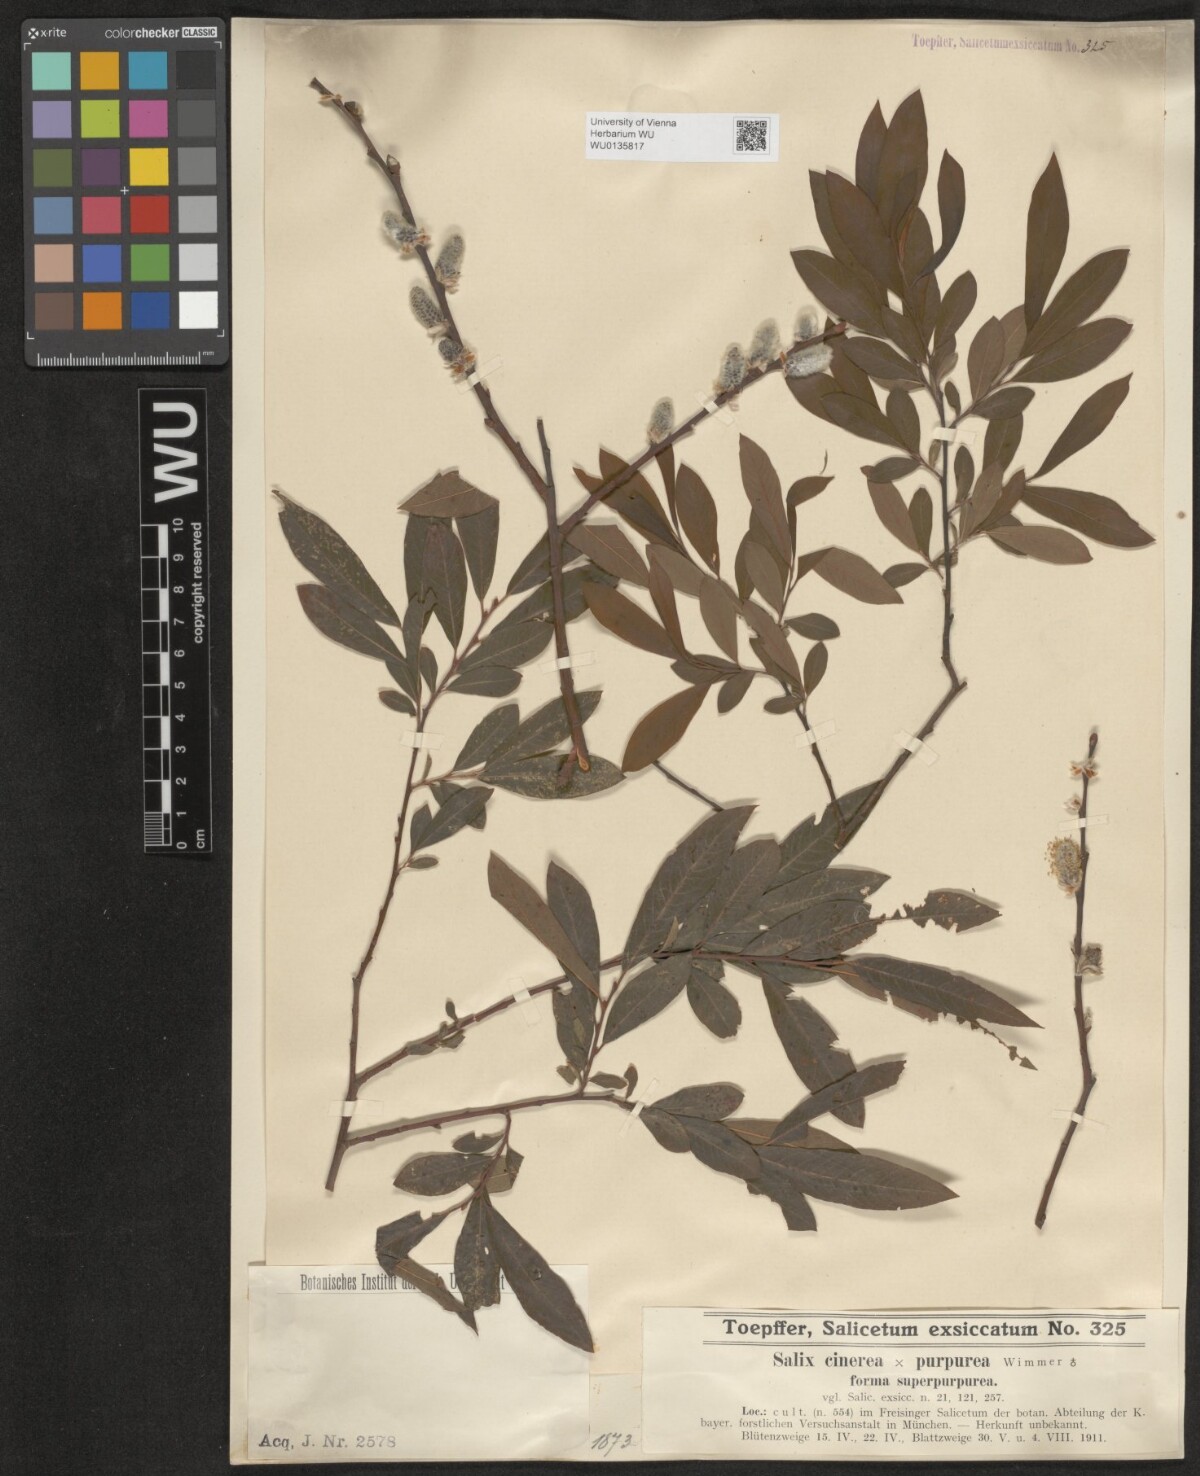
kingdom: Plantae
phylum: Tracheophyta
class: Magnoliopsida
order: Malpighiales
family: Salicaceae
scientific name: Salicaceae
